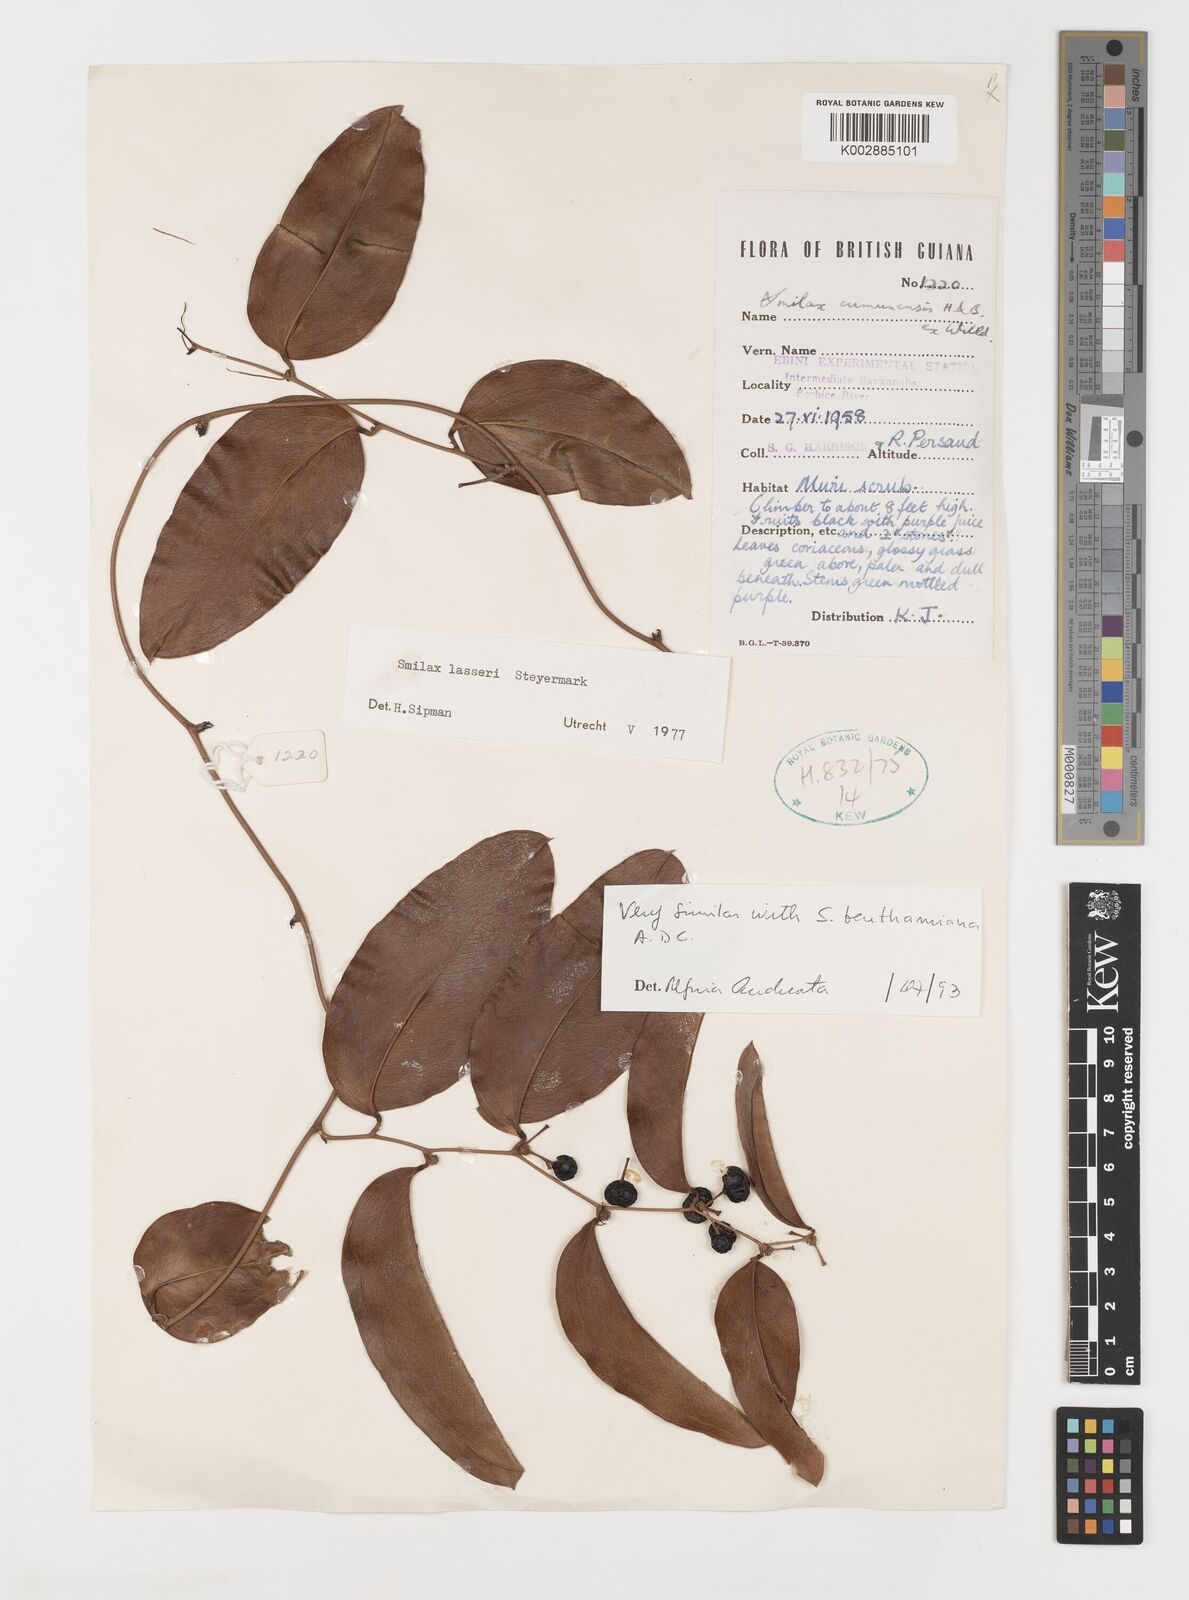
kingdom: Plantae
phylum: Tracheophyta
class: Liliopsida
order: Liliales
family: Smilacaceae
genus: Smilax
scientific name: Smilax domingensis
